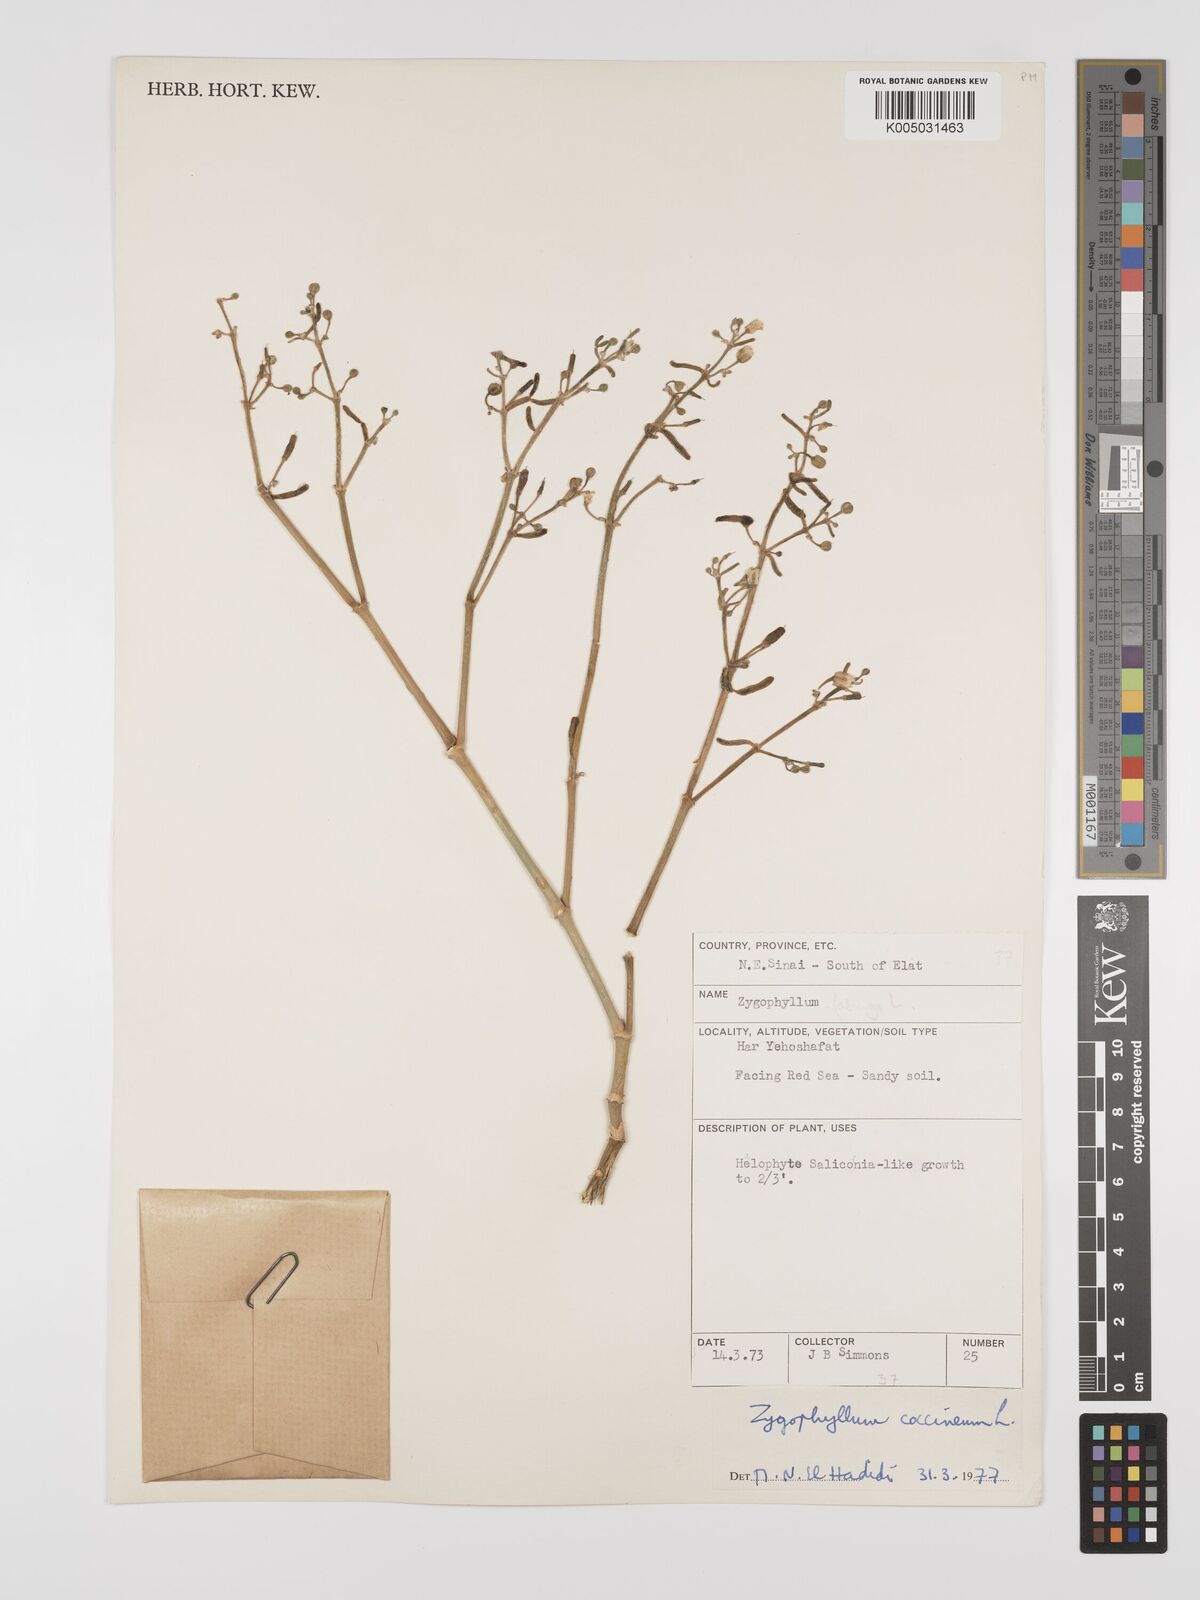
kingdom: Plantae
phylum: Tracheophyta
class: Magnoliopsida
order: Zygophyllales
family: Zygophyllaceae
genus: Zygophyllum
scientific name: Zygophyllum
